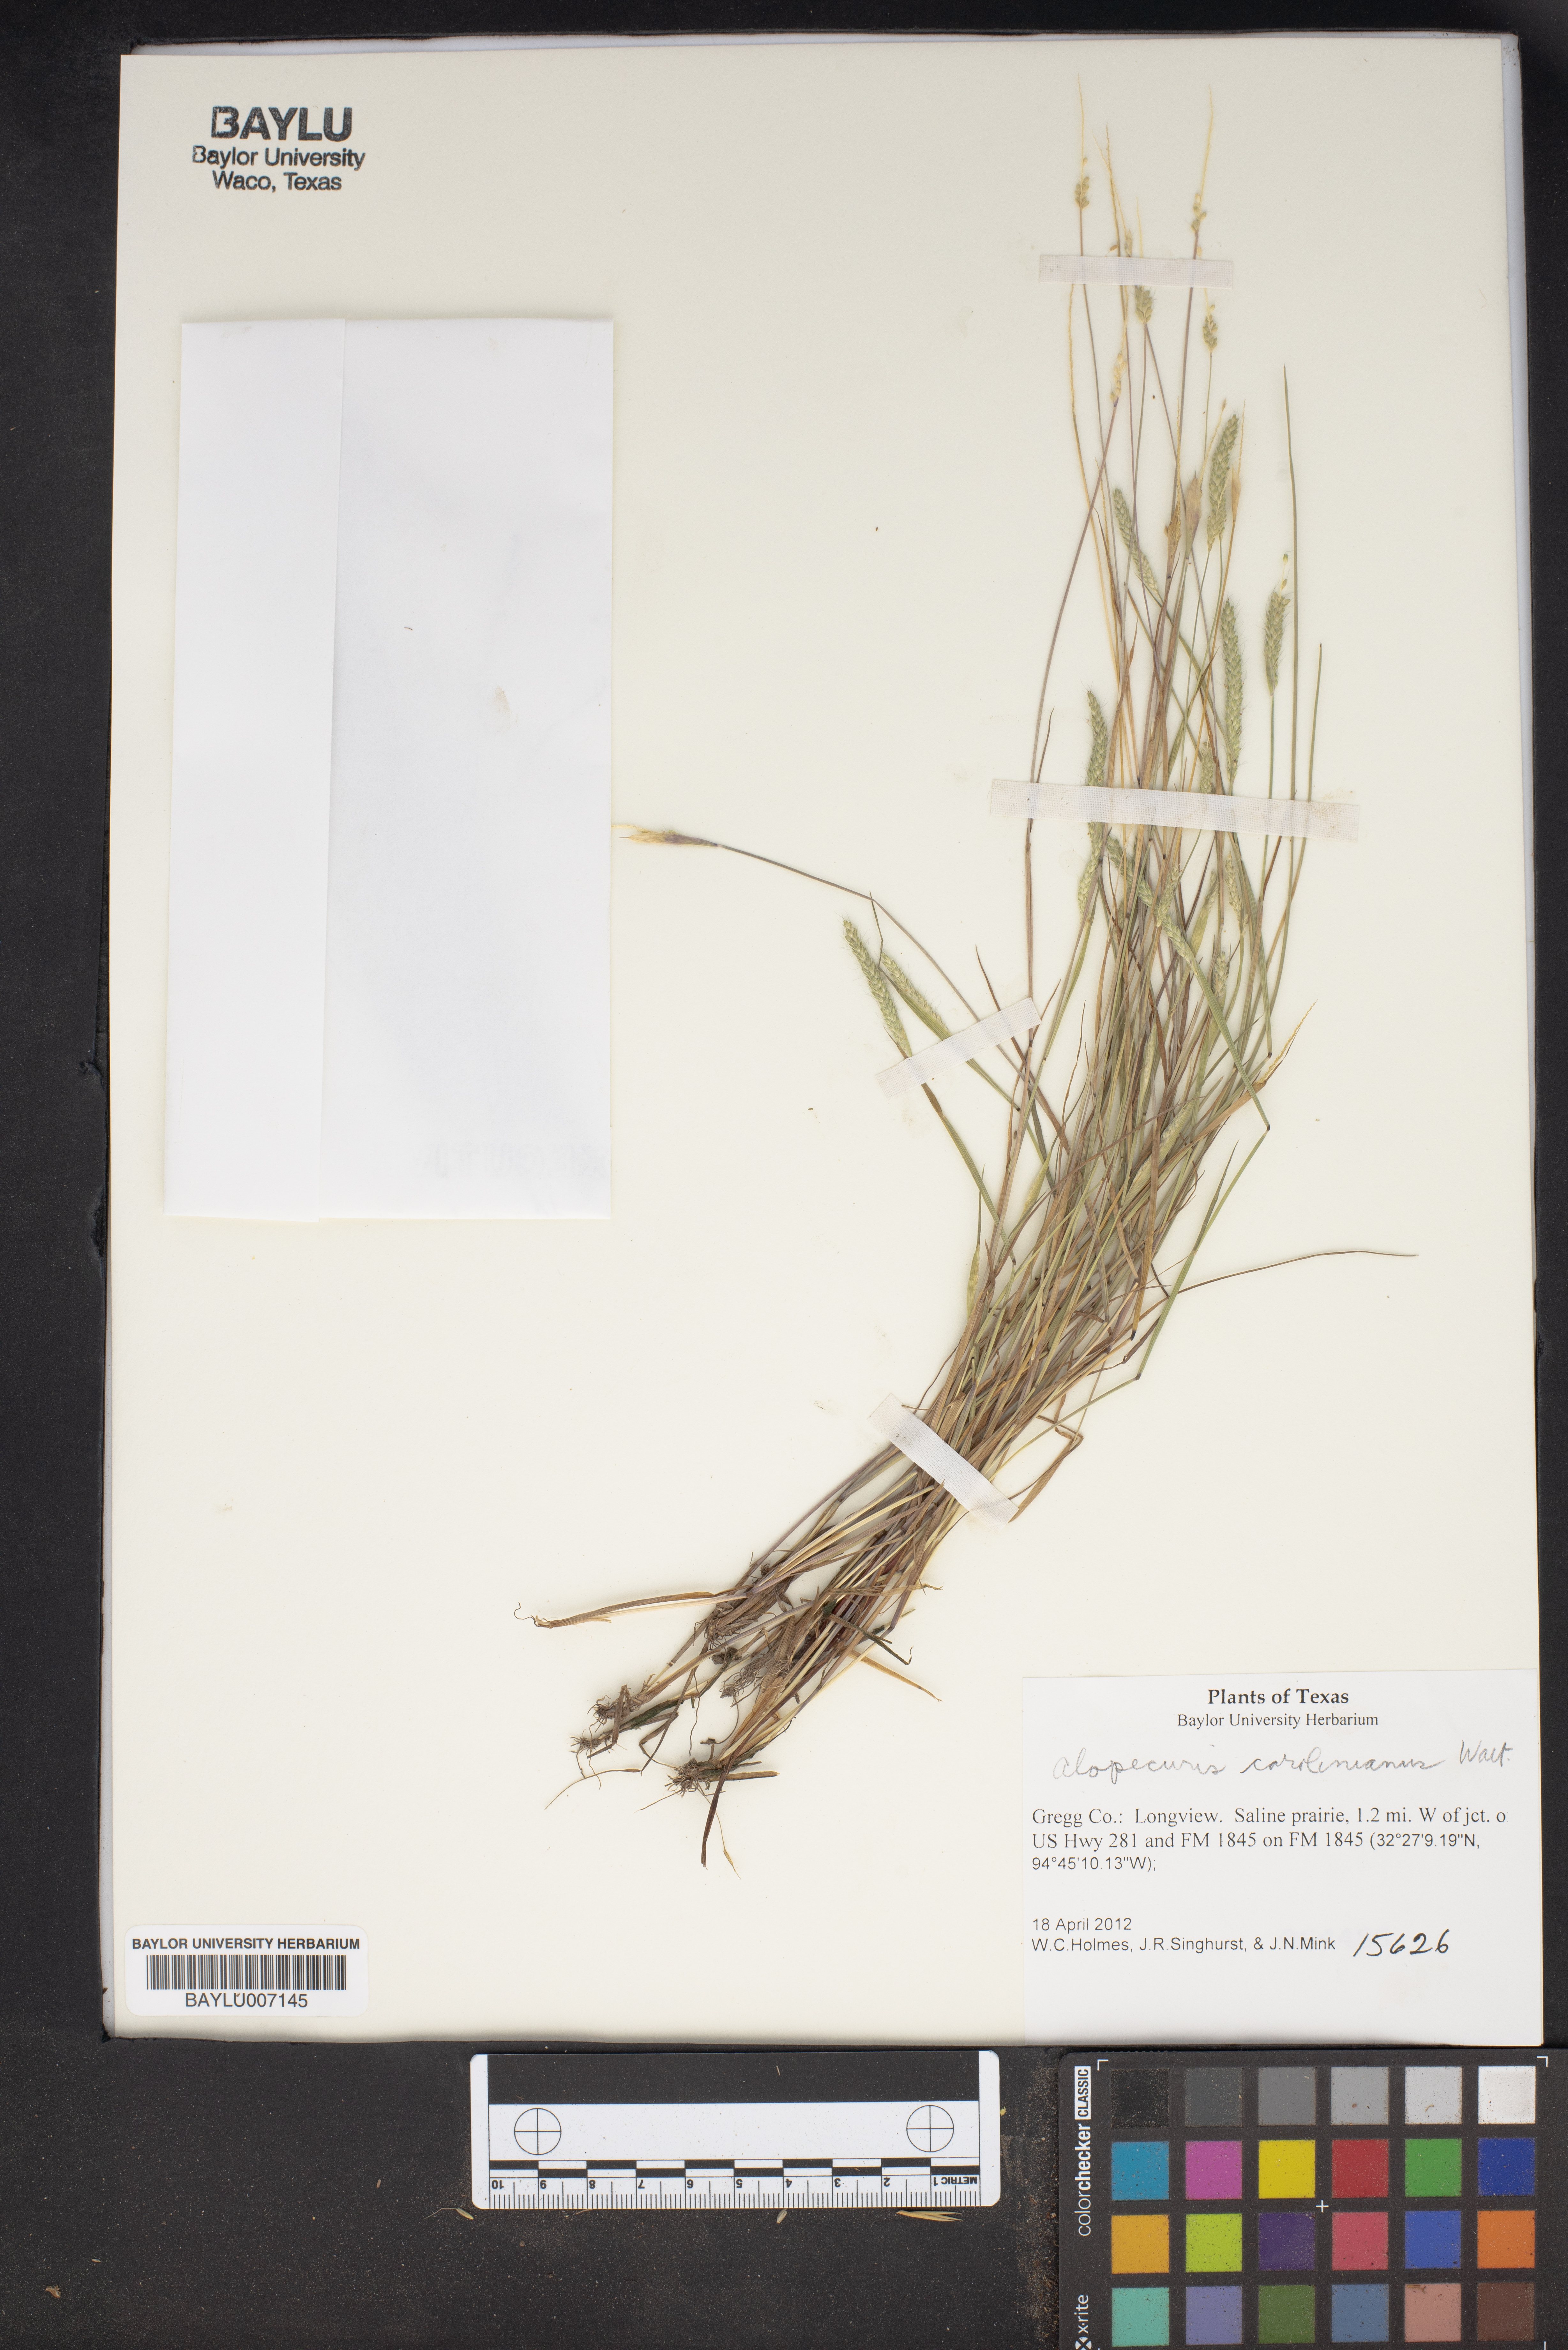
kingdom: Plantae
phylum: Tracheophyta
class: Liliopsida
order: Poales
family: Poaceae
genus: Alopecurus
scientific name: Alopecurus carolinianus
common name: Tufted foxtail
